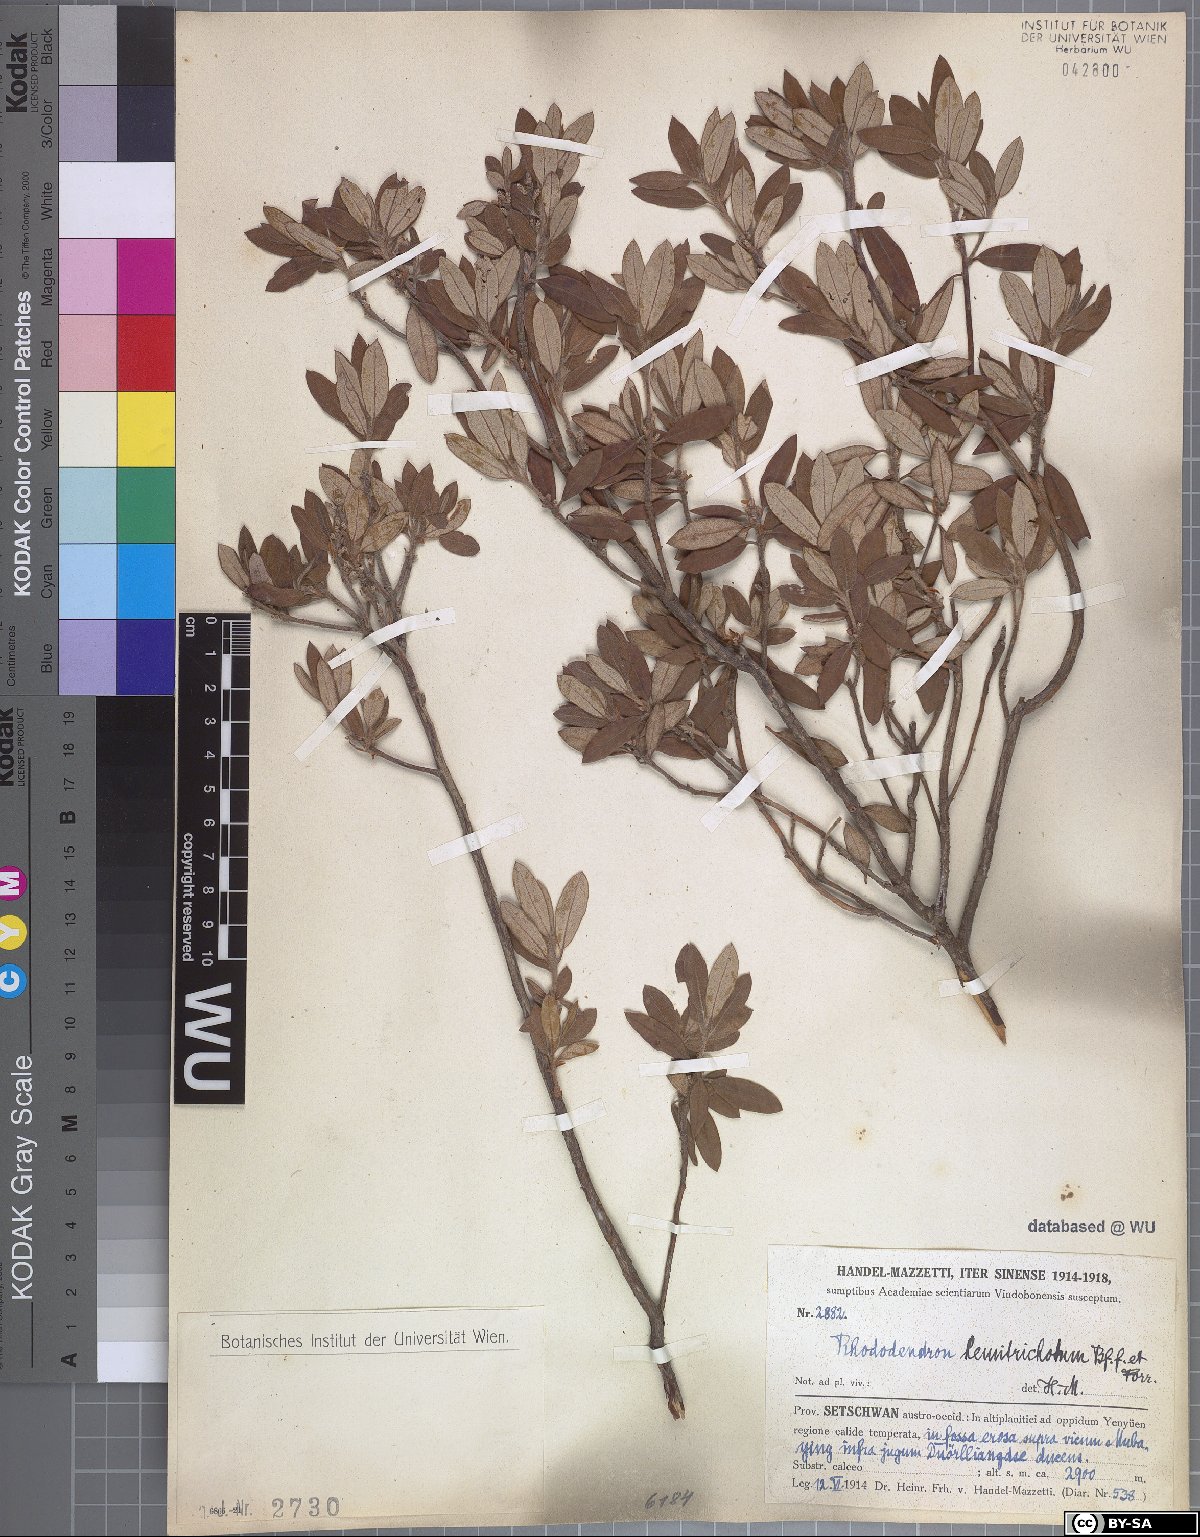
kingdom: Plantae
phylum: Tracheophyta
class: Magnoliopsida
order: Ericales
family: Ericaceae
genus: Rhododendron
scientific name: Rhododendron hemitrichotum
